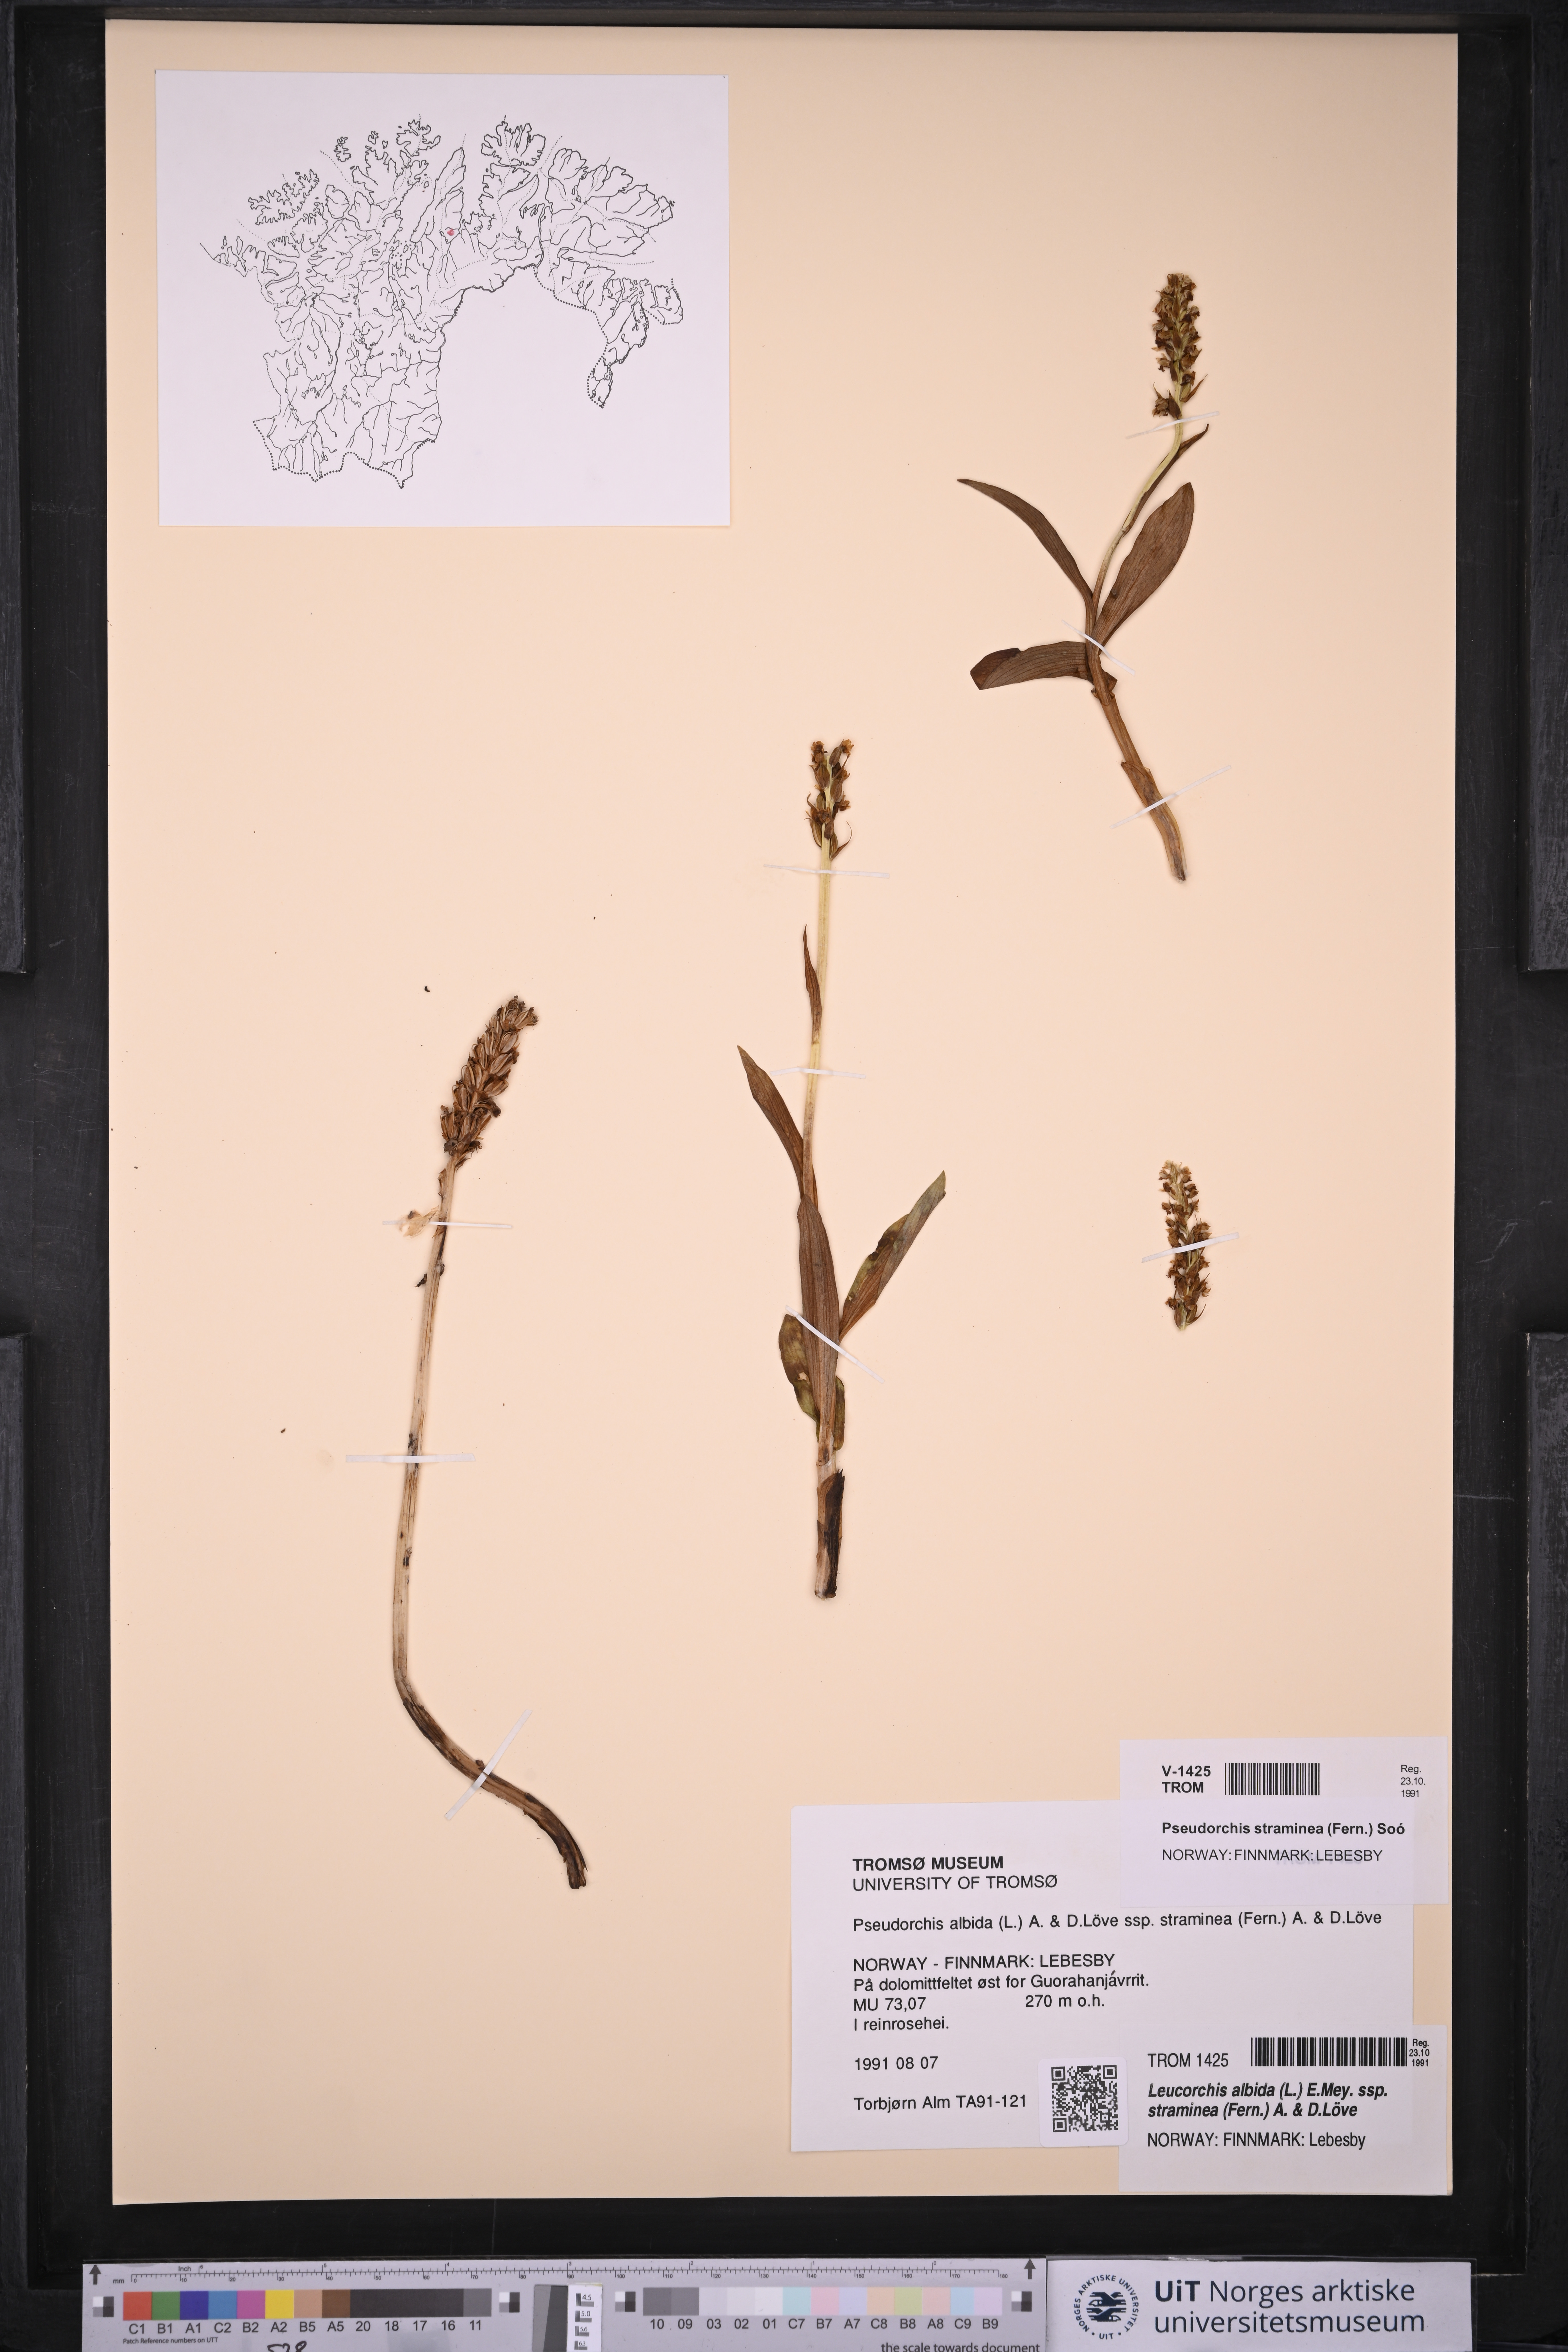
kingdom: Plantae
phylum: Tracheophyta
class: Liliopsida
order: Asparagales
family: Orchidaceae
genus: Pseudorchis
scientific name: Pseudorchis straminea
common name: Vanilla-scented bog orchid
